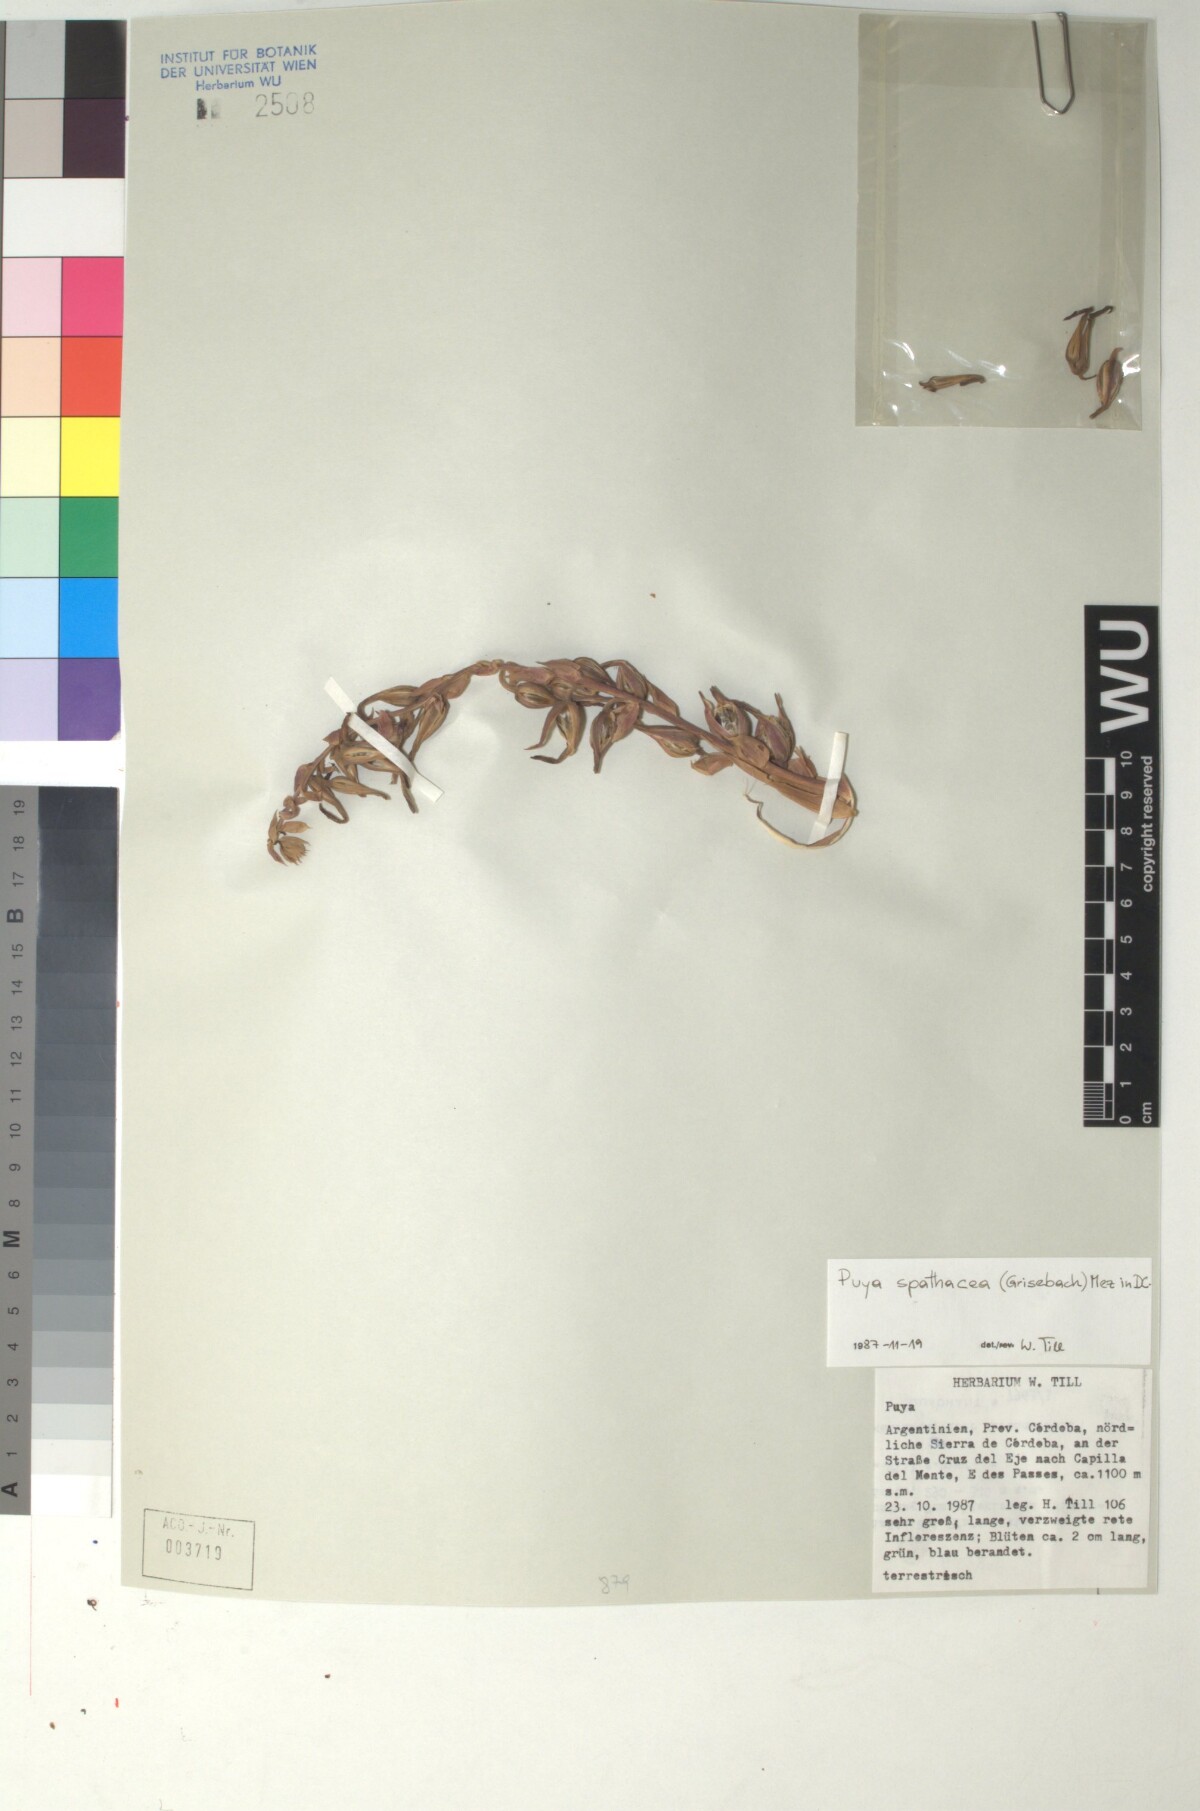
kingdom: Plantae
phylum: Tracheophyta
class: Liliopsida
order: Poales
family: Bromeliaceae
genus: Puya
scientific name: Puya spathacea
